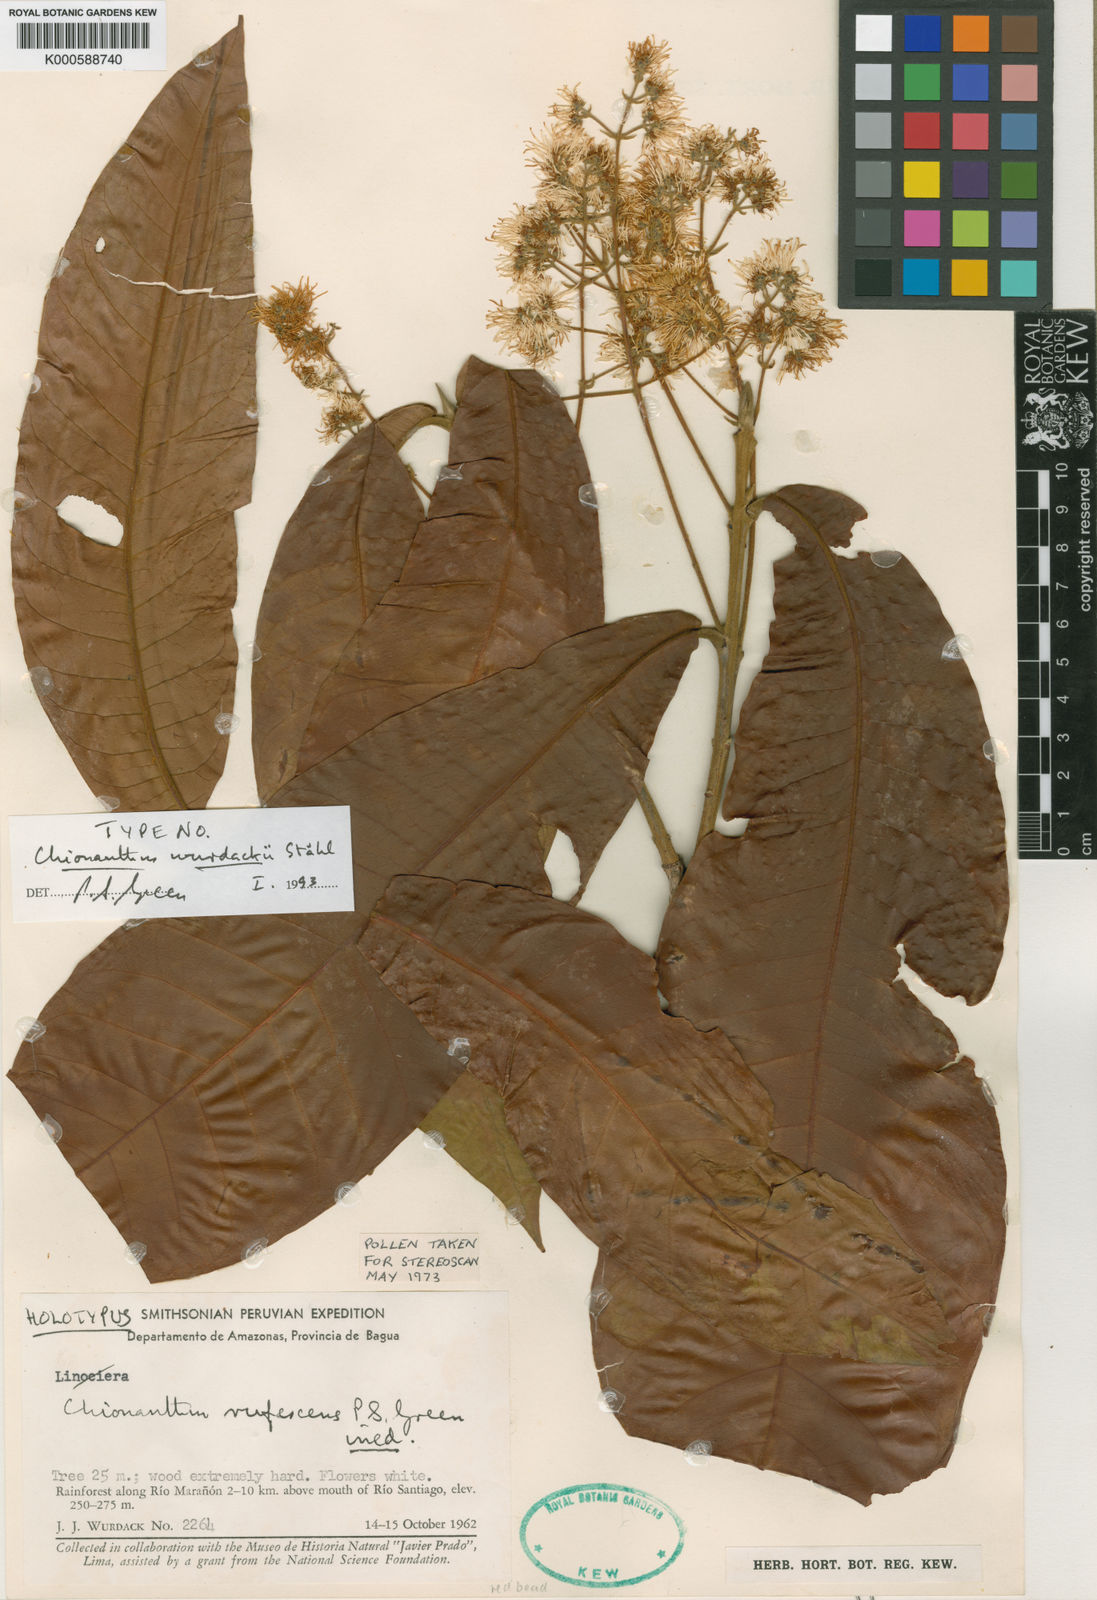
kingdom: Plantae
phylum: Tracheophyta
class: Magnoliopsida
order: Lamiales
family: Oleaceae
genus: Chionanthus
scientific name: Chionanthus
